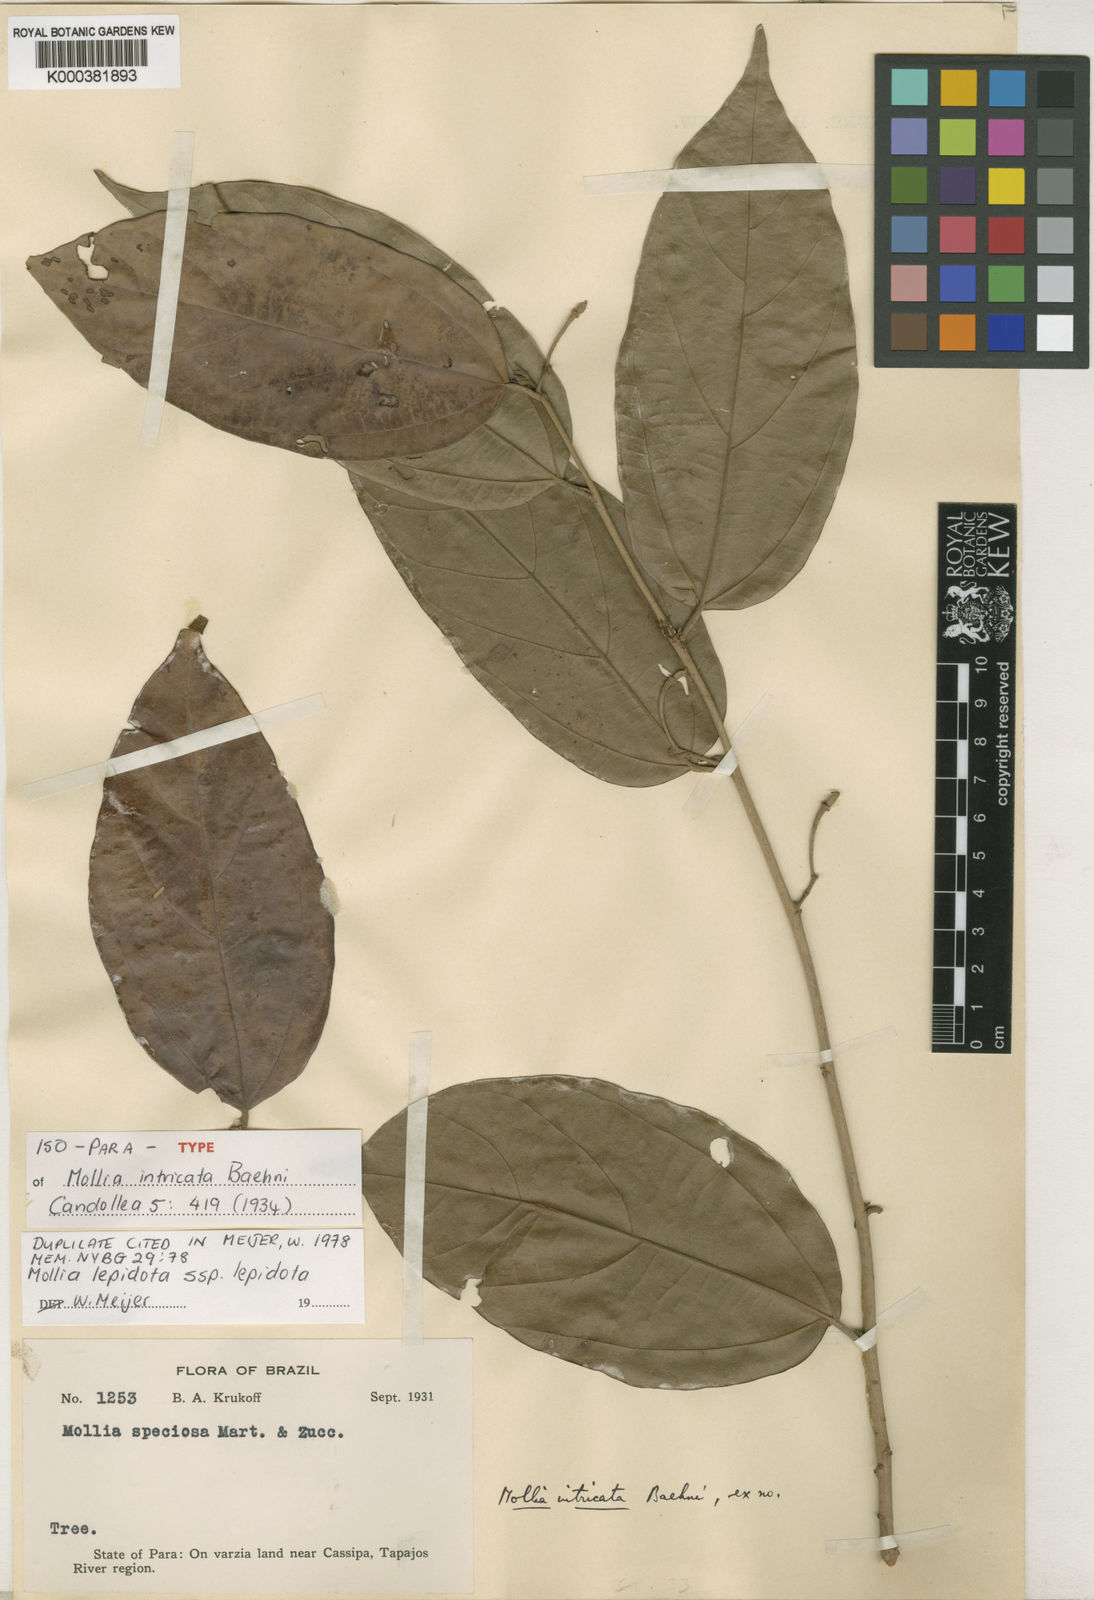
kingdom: Plantae
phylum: Tracheophyta
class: Magnoliopsida
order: Malvales
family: Malvaceae
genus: Mollia
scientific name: Mollia lepidota
